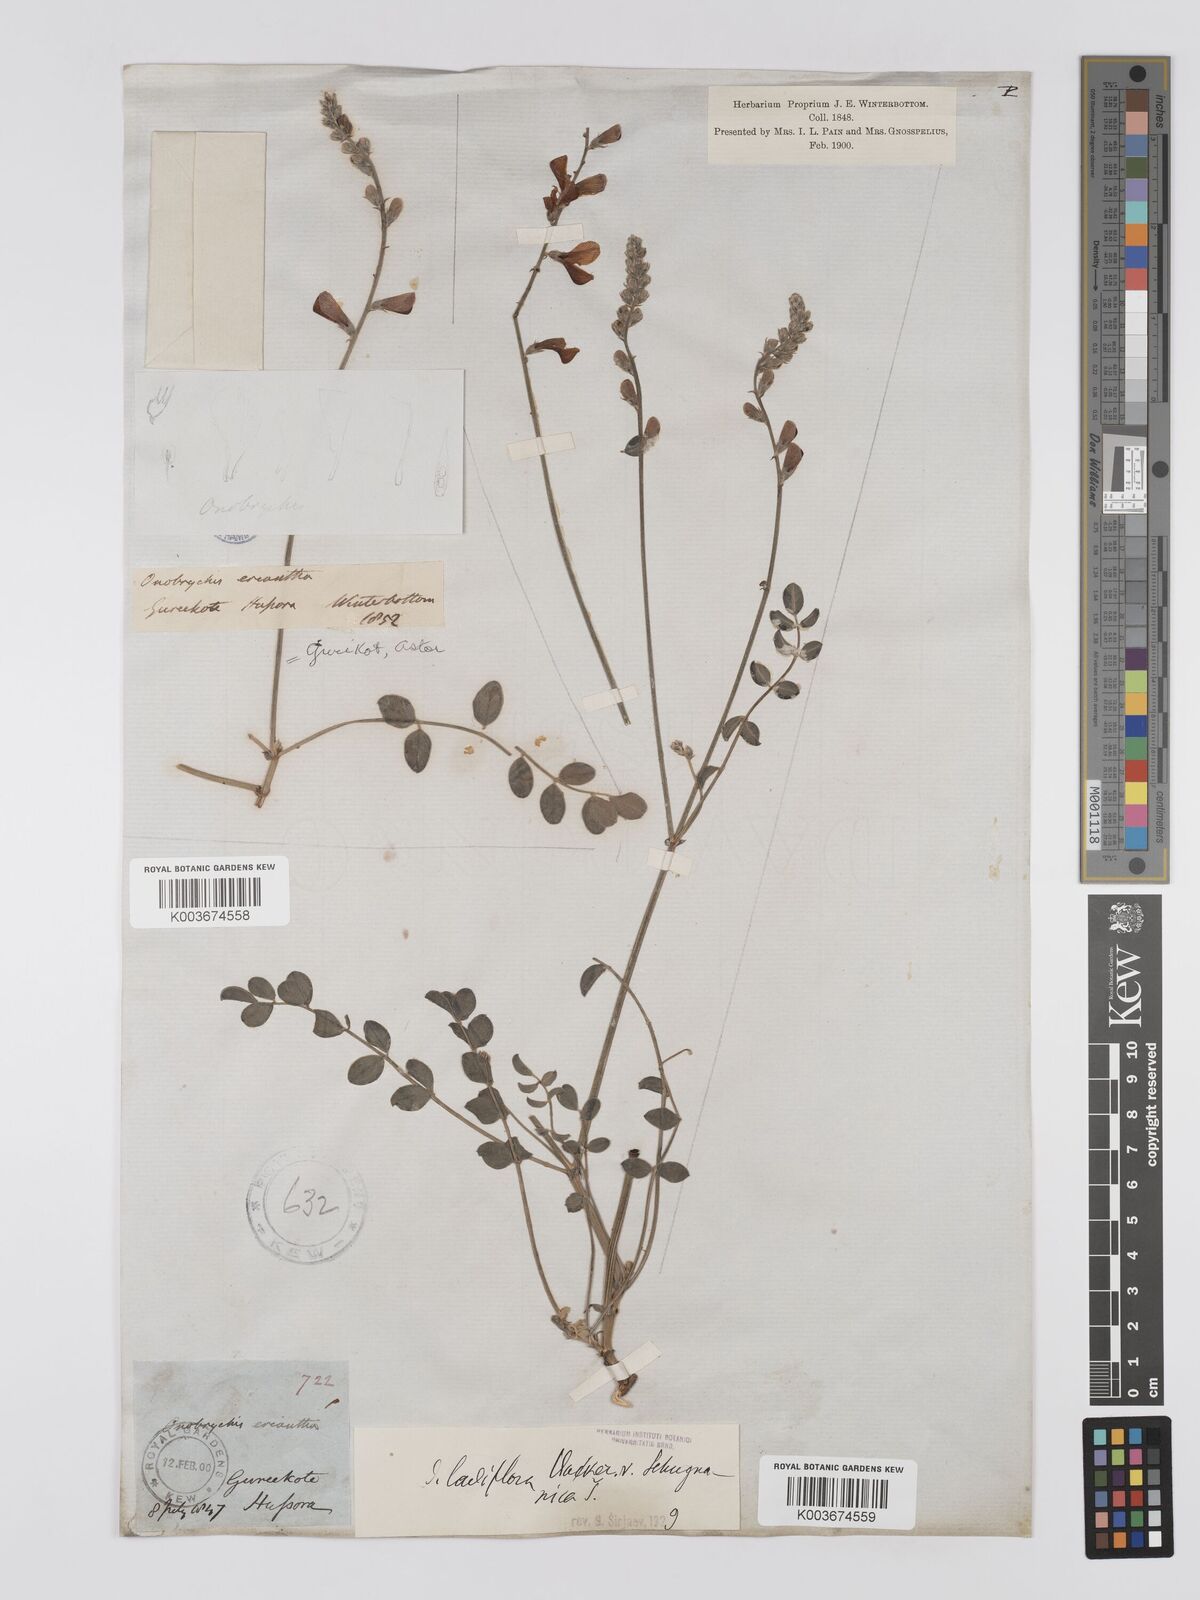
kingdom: Plantae
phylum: Tracheophyta
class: Magnoliopsida
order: Fabales
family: Fabaceae
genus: Onobrychis
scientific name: Onobrychis laxiflora
